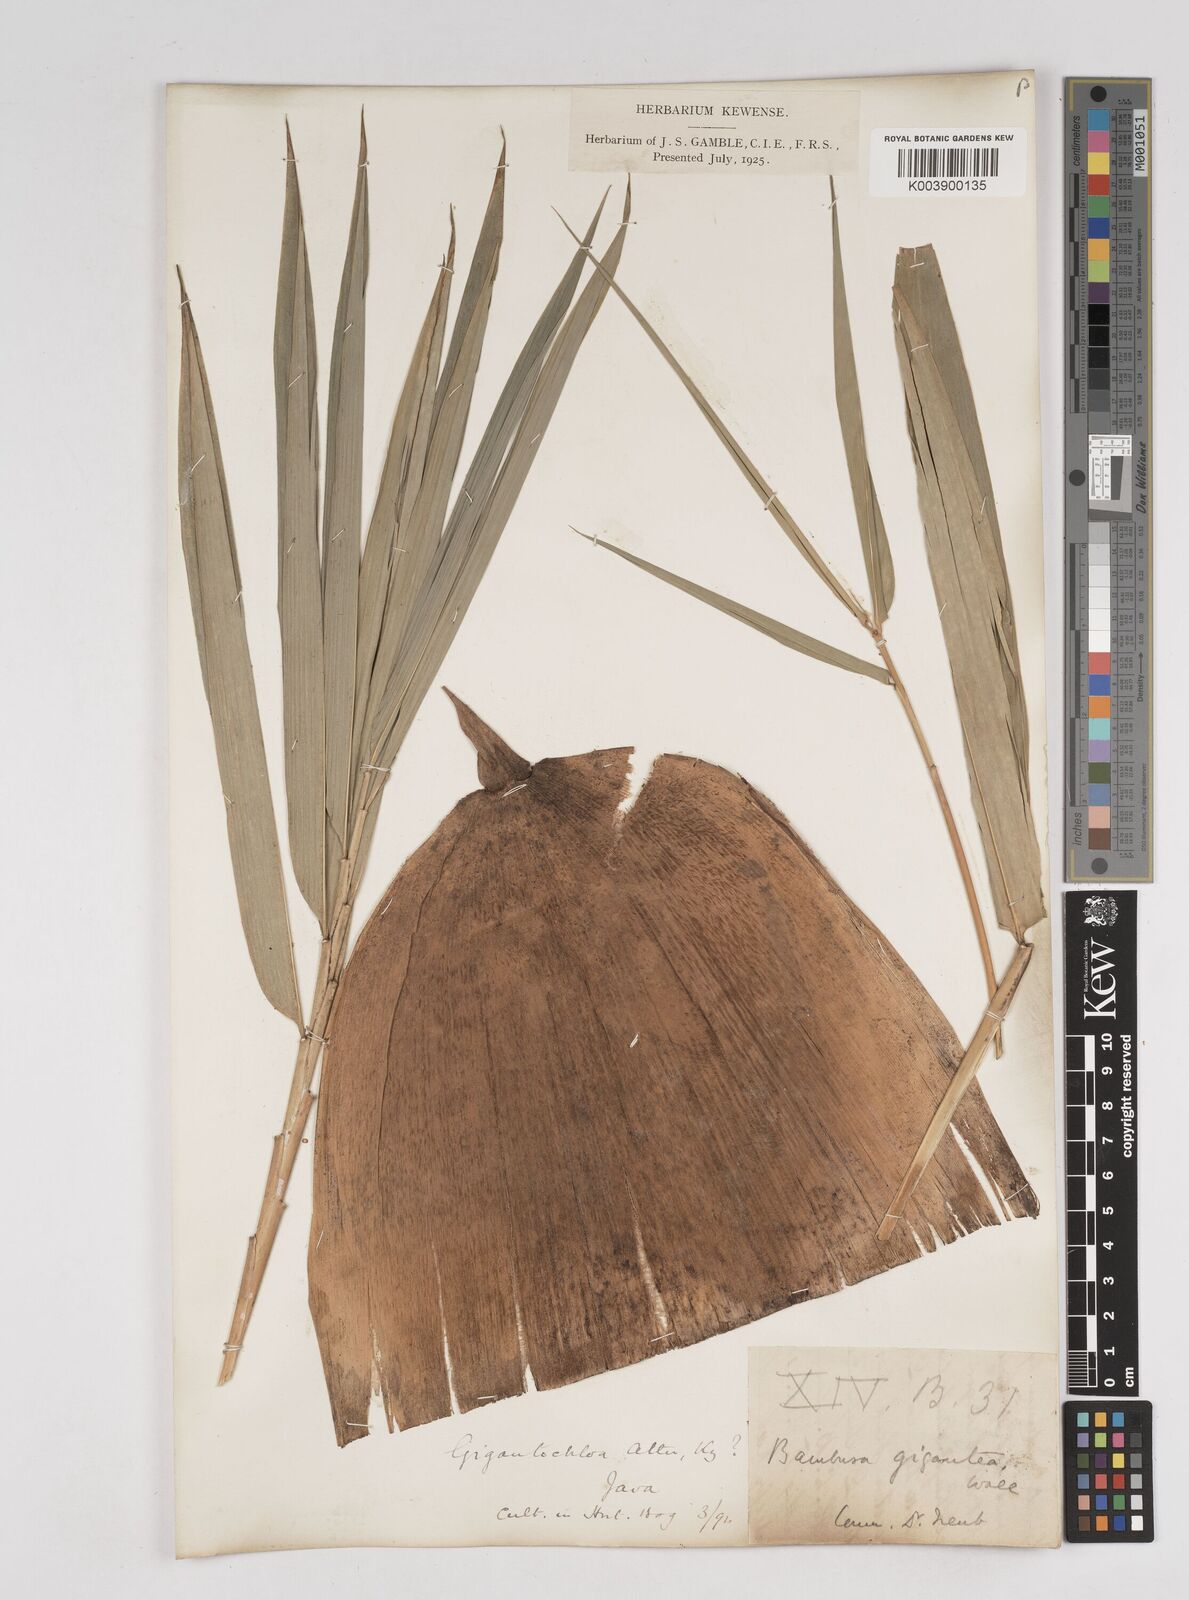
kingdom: Plantae
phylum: Tracheophyta
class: Liliopsida
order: Poales
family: Poaceae
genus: Gigantochloa
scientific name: Gigantochloa atter
